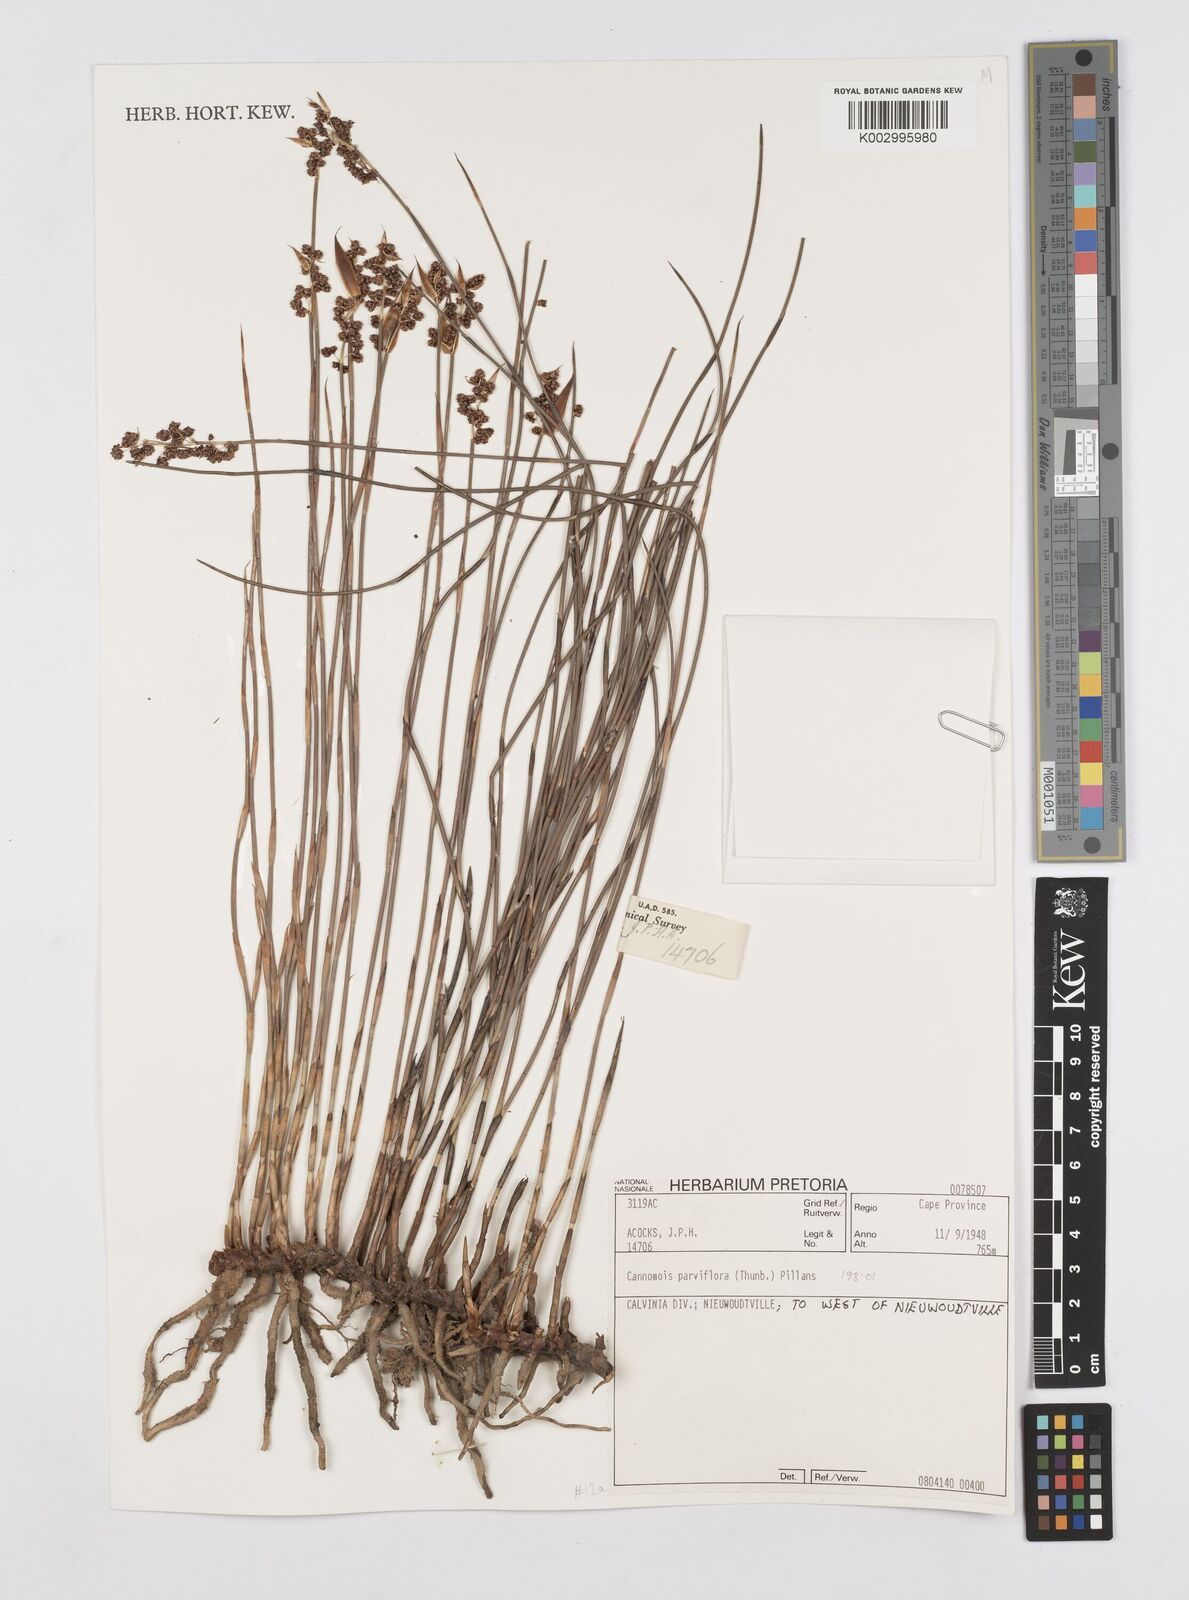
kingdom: Plantae
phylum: Tracheophyta
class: Liliopsida
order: Poales
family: Restionaceae
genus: Cannomois
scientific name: Cannomois parviflora
